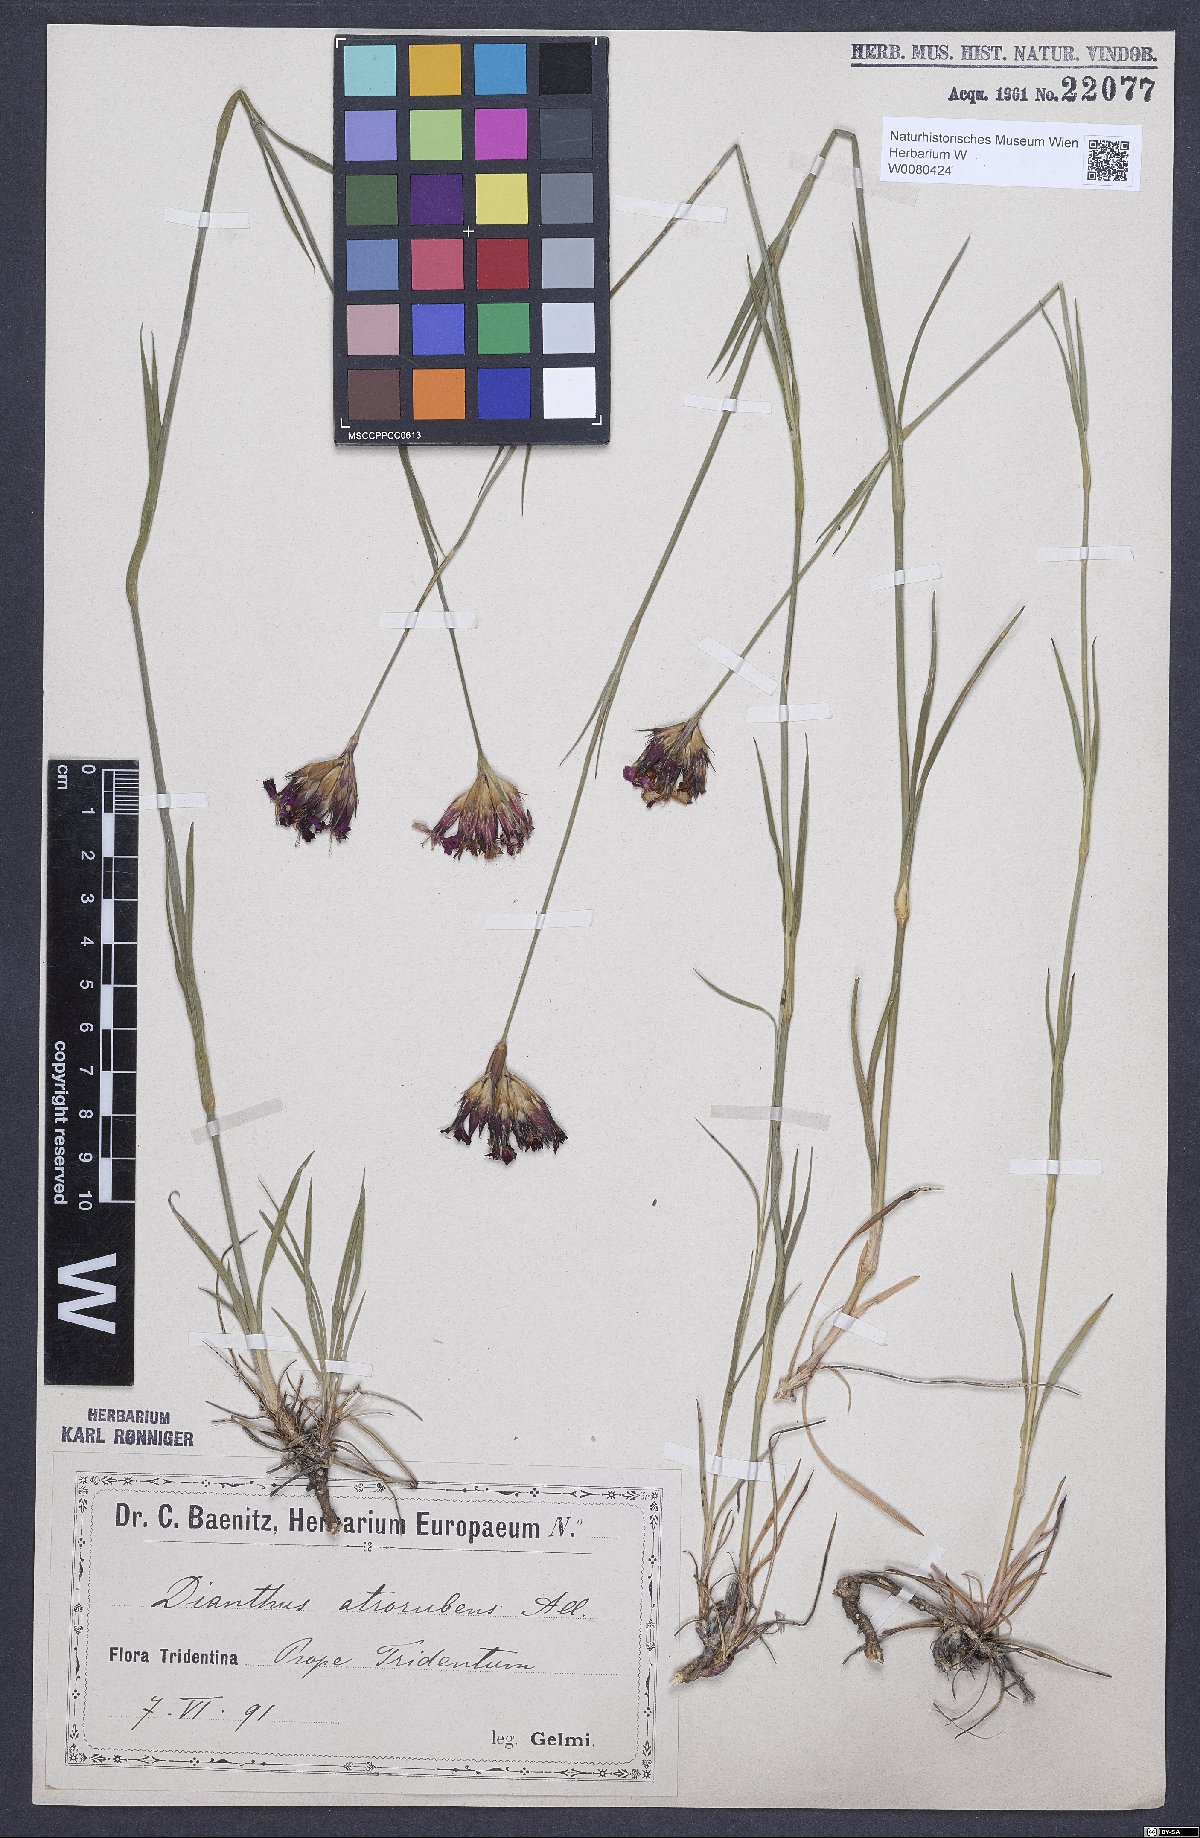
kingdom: Plantae
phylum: Tracheophyta
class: Magnoliopsida
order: Caryophyllales
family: Caryophyllaceae
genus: Dianthus
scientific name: Dianthus carthusianorum
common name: Carthusian pink
